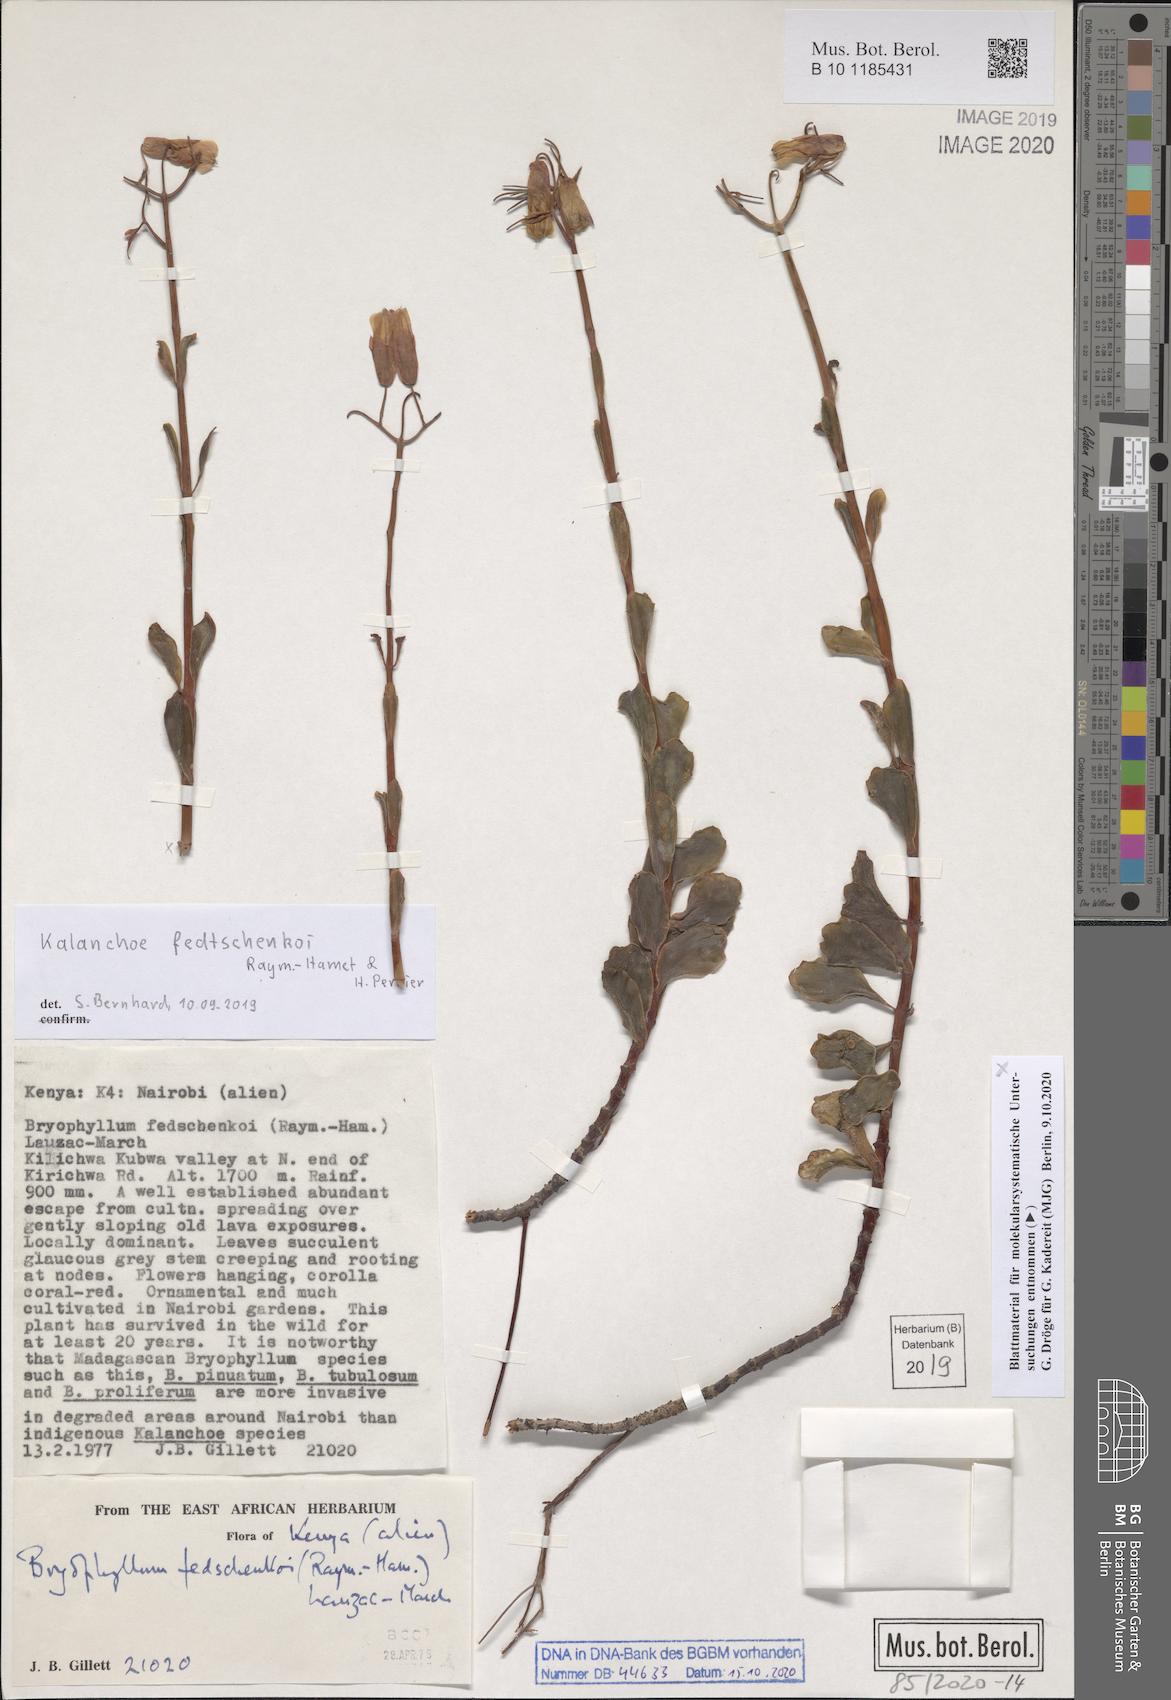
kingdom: Plantae
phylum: Tracheophyta
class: Magnoliopsida
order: Saxifragales
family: Crassulaceae
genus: Kalanchoe
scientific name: Kalanchoe fedtschenkoi
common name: Lavender scallops
